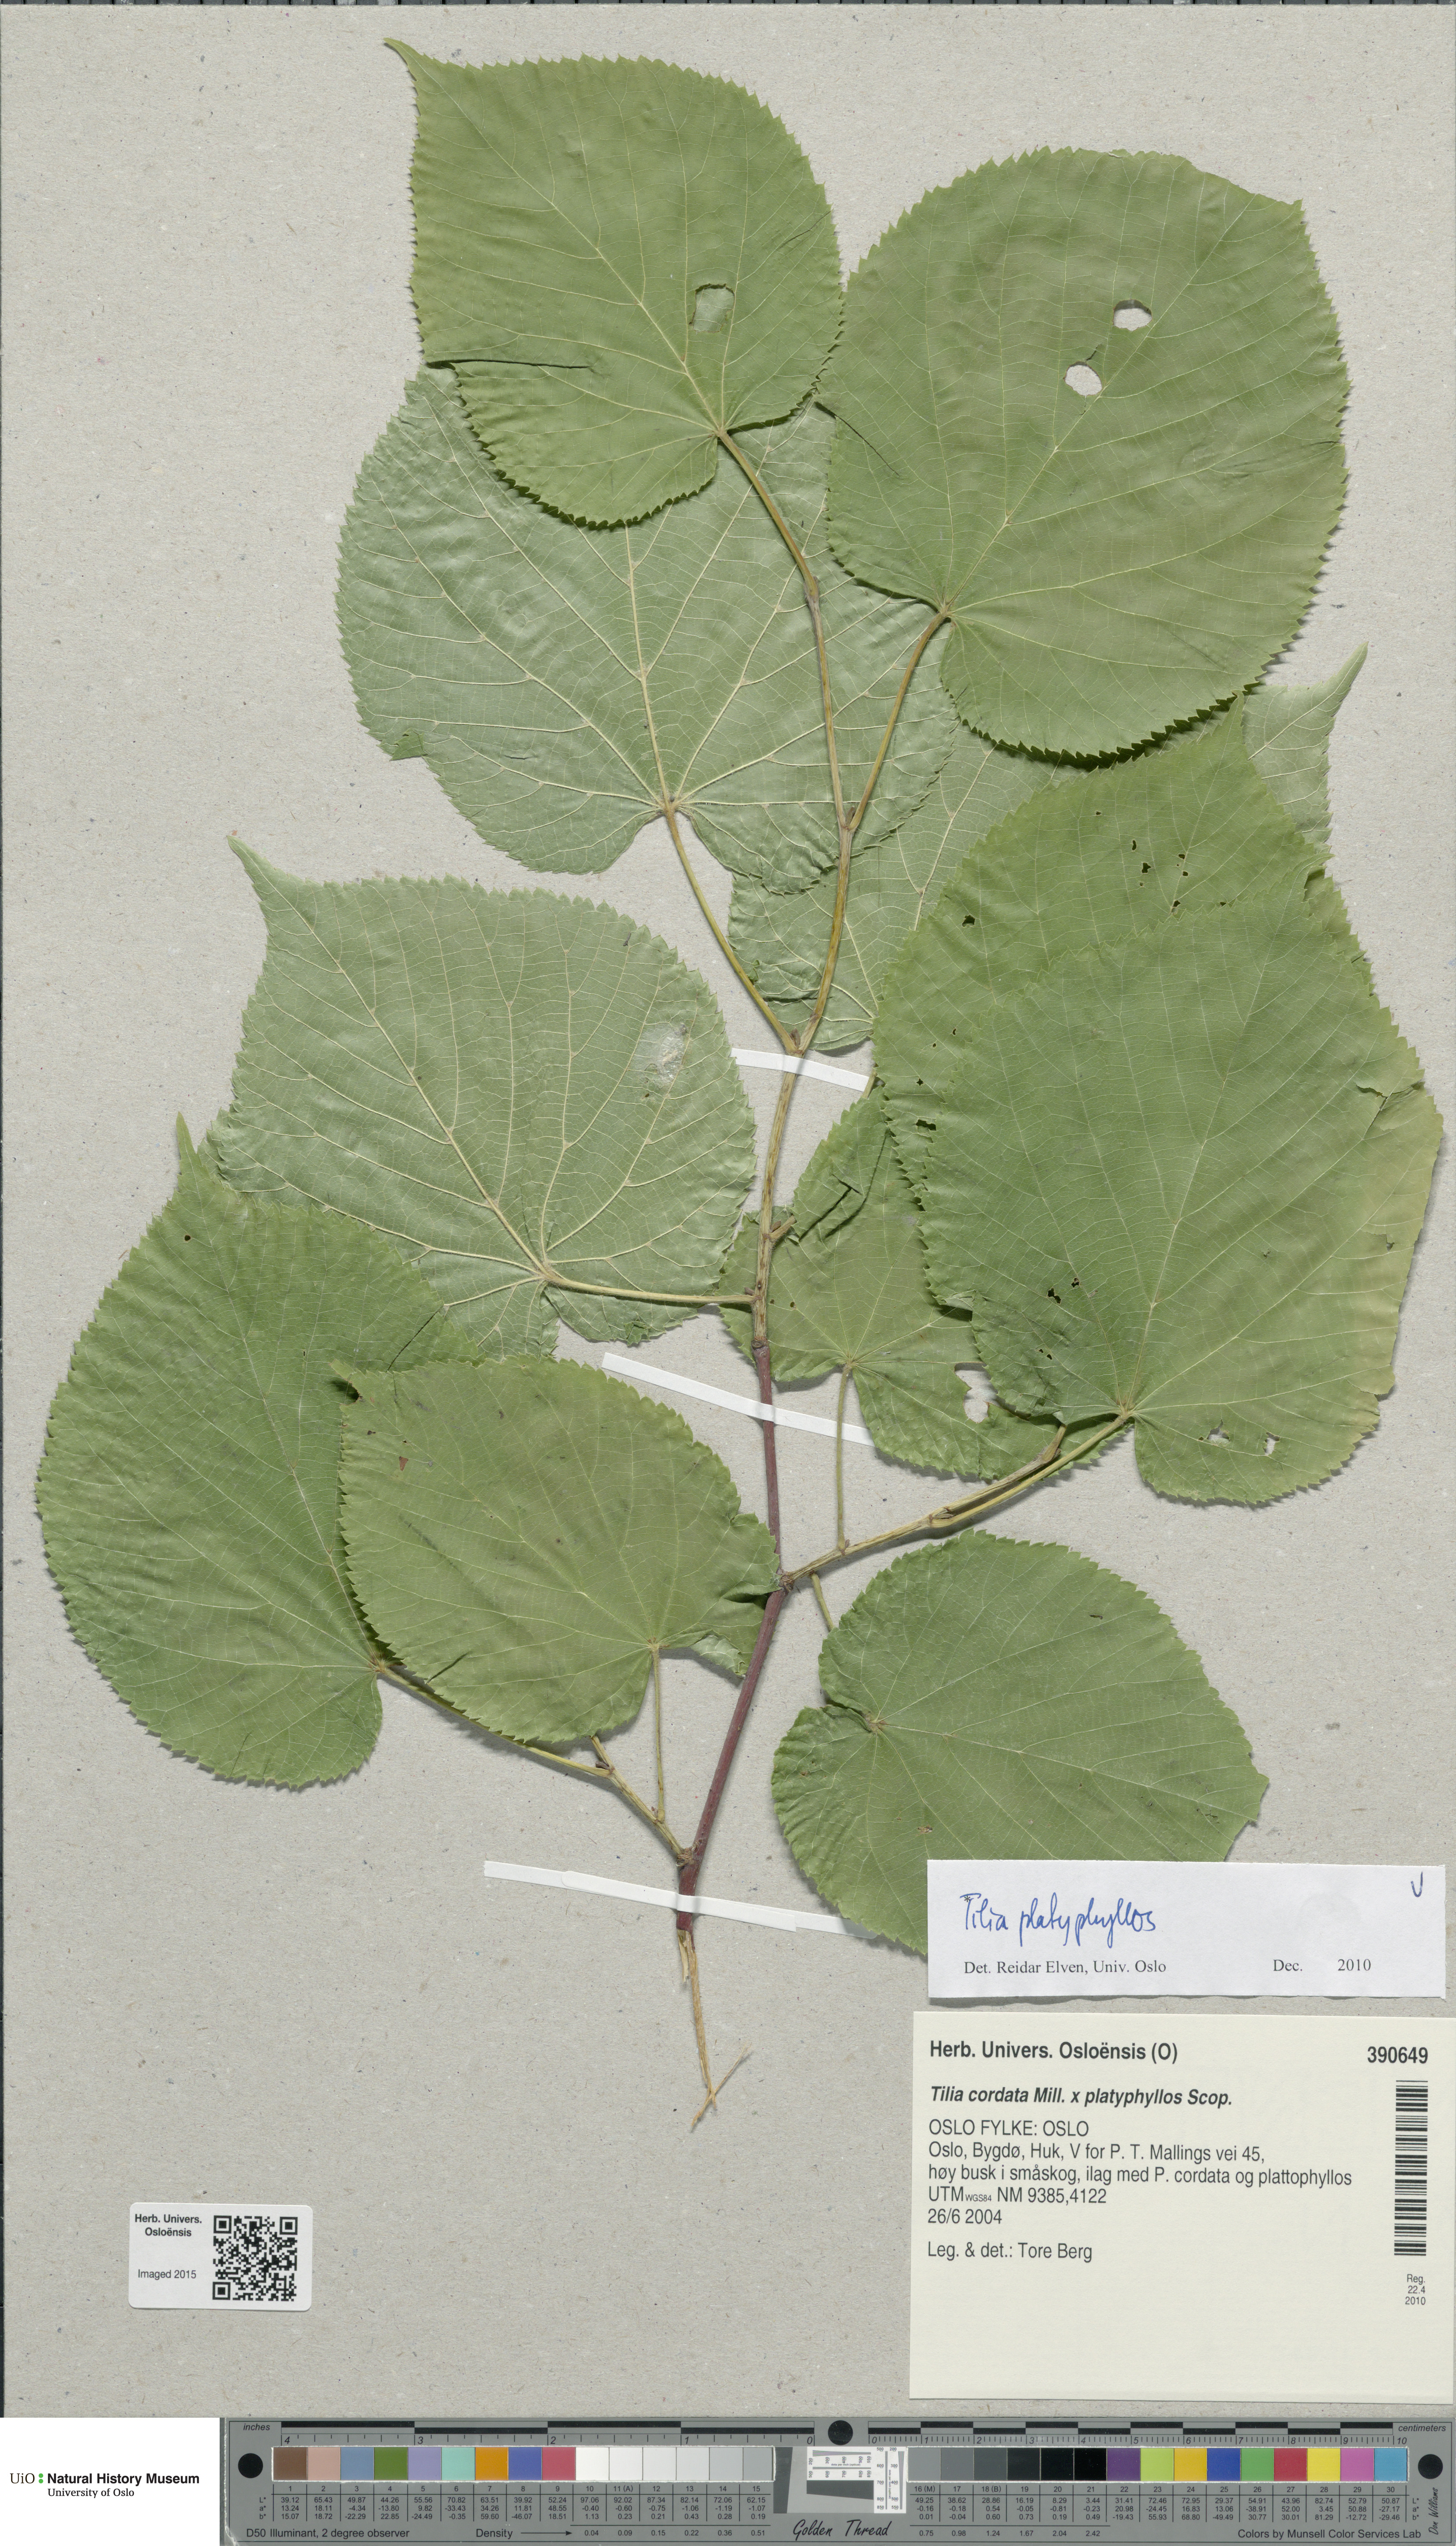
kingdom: Plantae
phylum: Tracheophyta
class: Magnoliopsida
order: Malvales
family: Malvaceae
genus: Tilia
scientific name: Tilia platyphyllos
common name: Large-leaved lime
